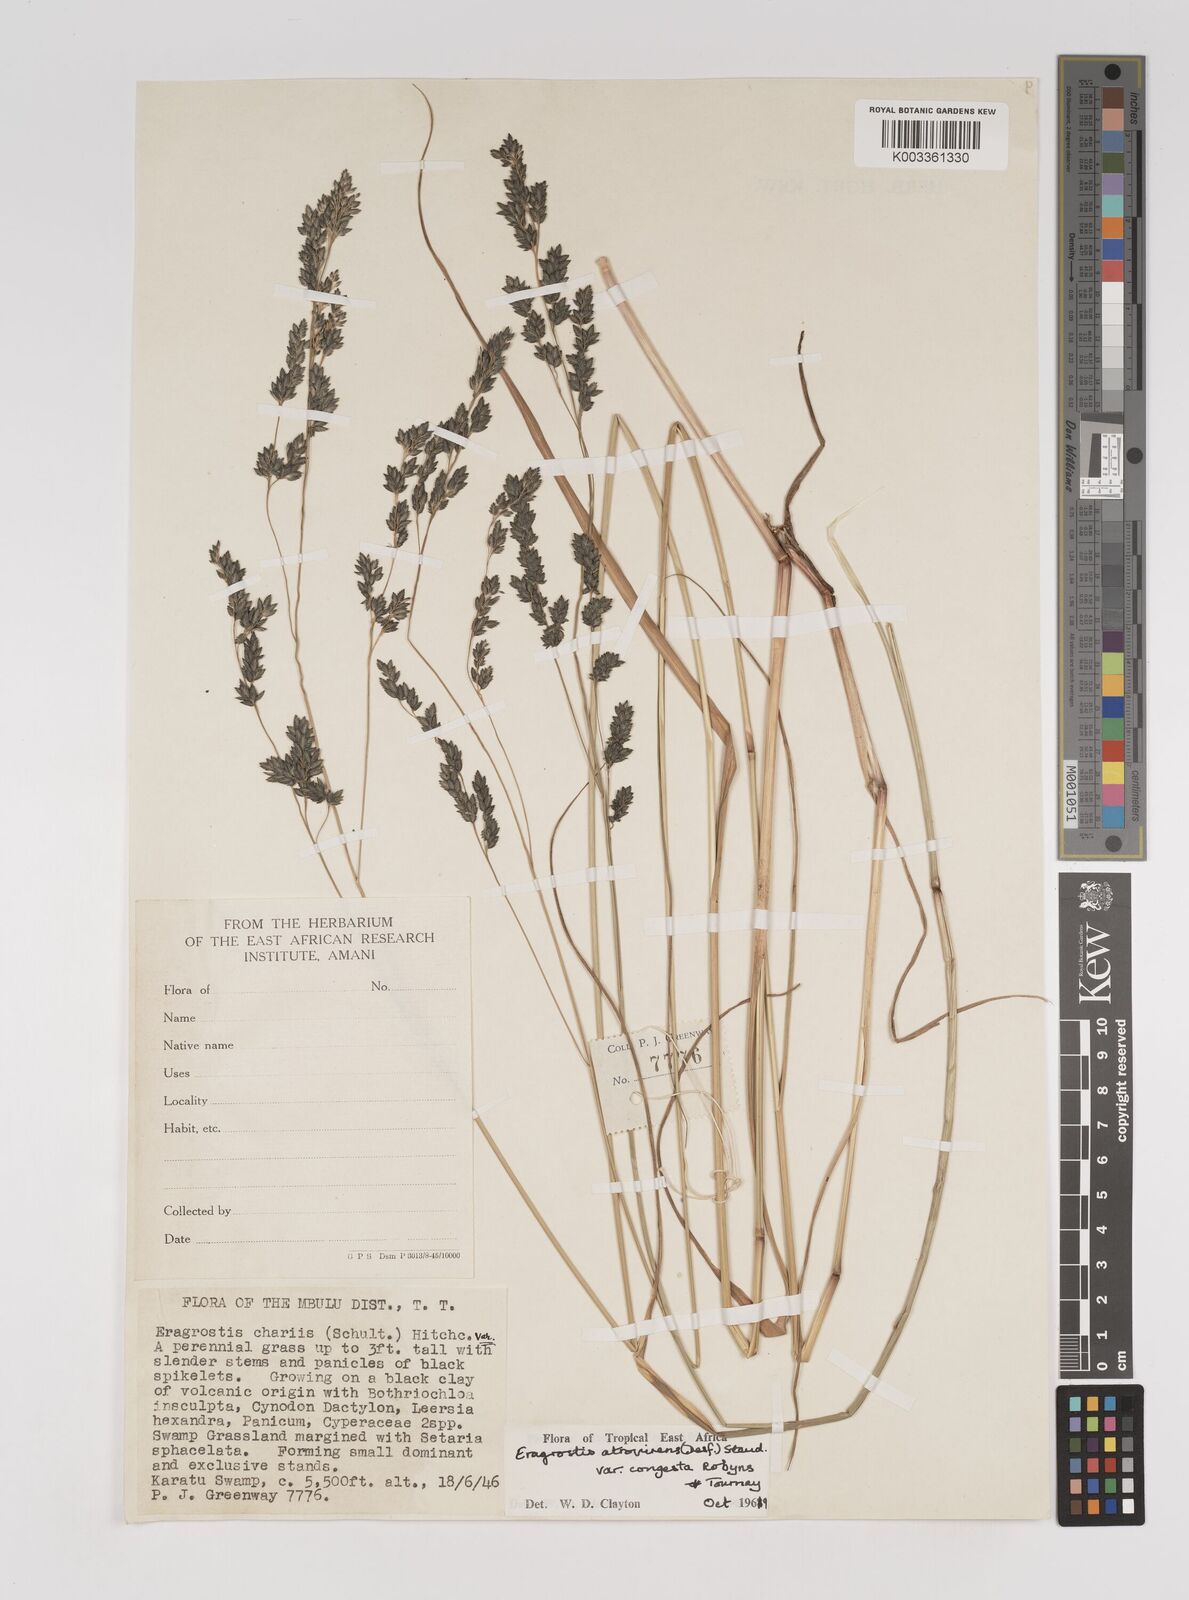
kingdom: Plantae
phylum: Tracheophyta
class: Liliopsida
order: Poales
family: Poaceae
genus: Eragrostis
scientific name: Eragrostis botryodes
